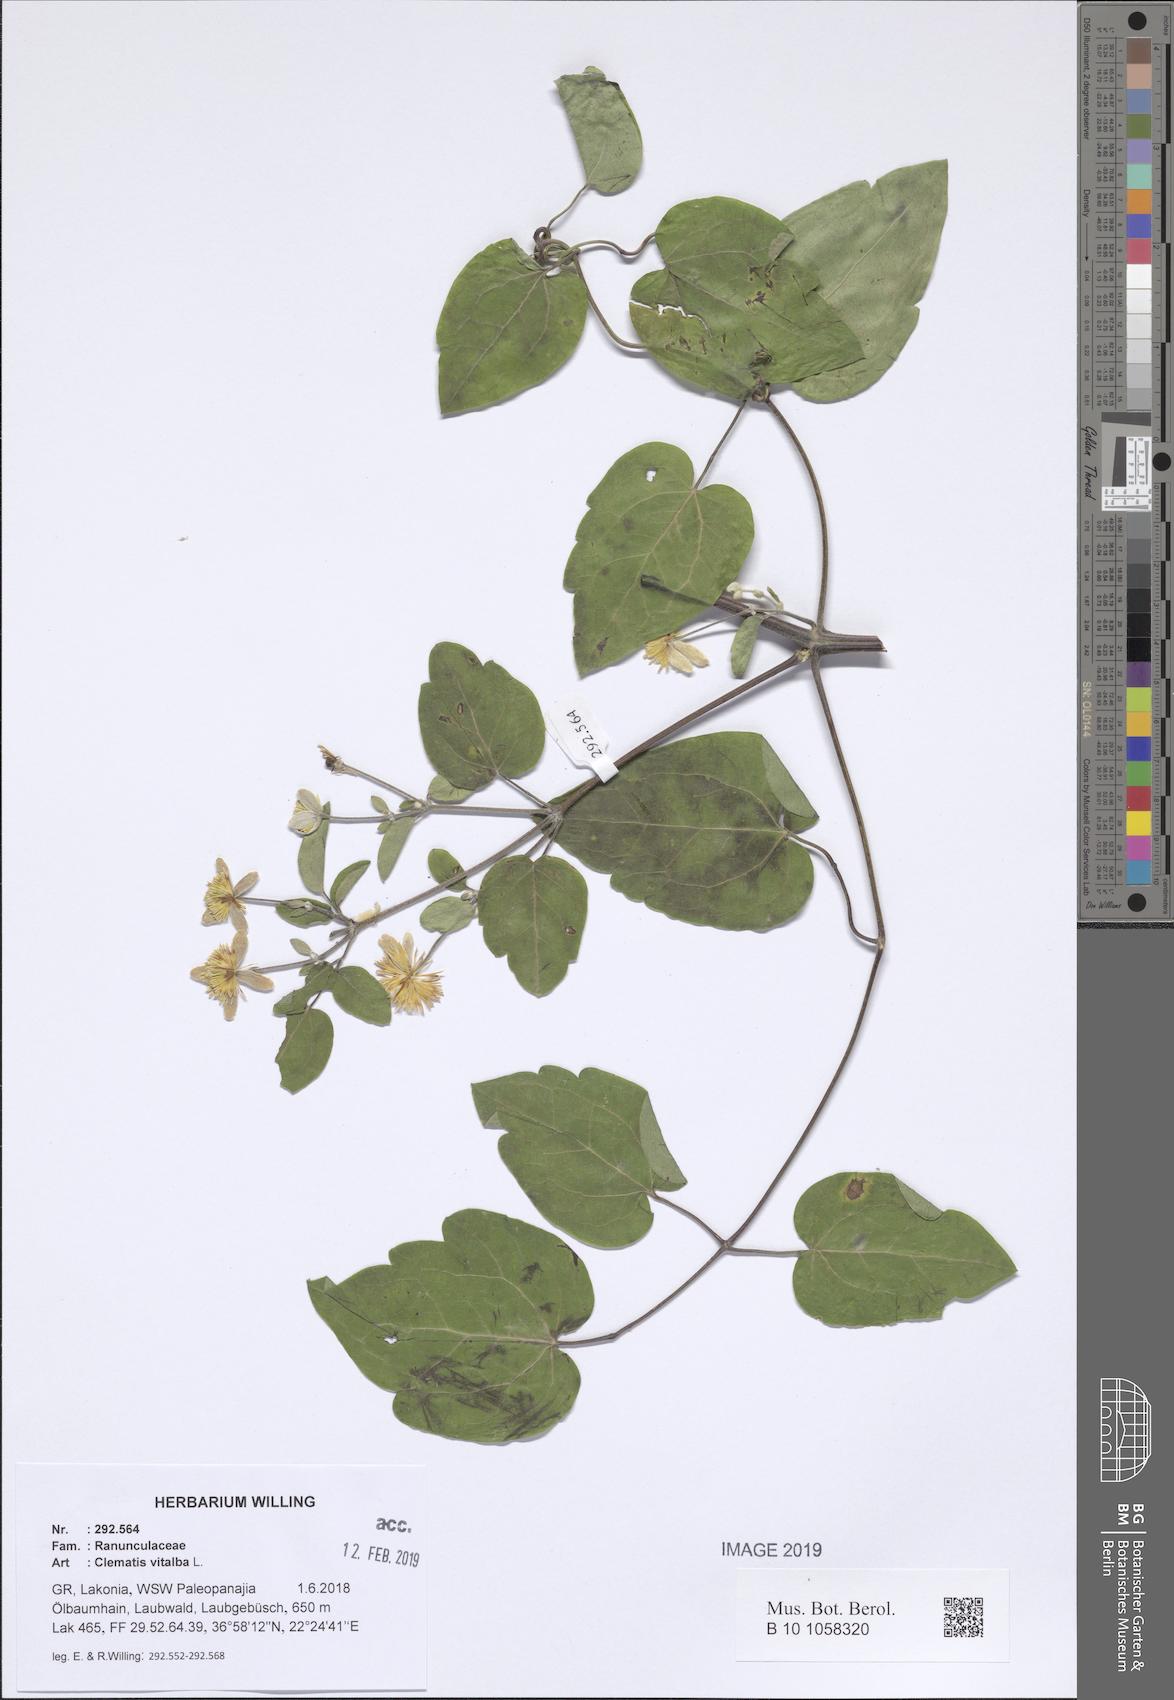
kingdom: Plantae
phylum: Tracheophyta
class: Magnoliopsida
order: Ranunculales
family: Ranunculaceae
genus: Clematis
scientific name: Clematis vitalba
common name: Evergreen clematis
